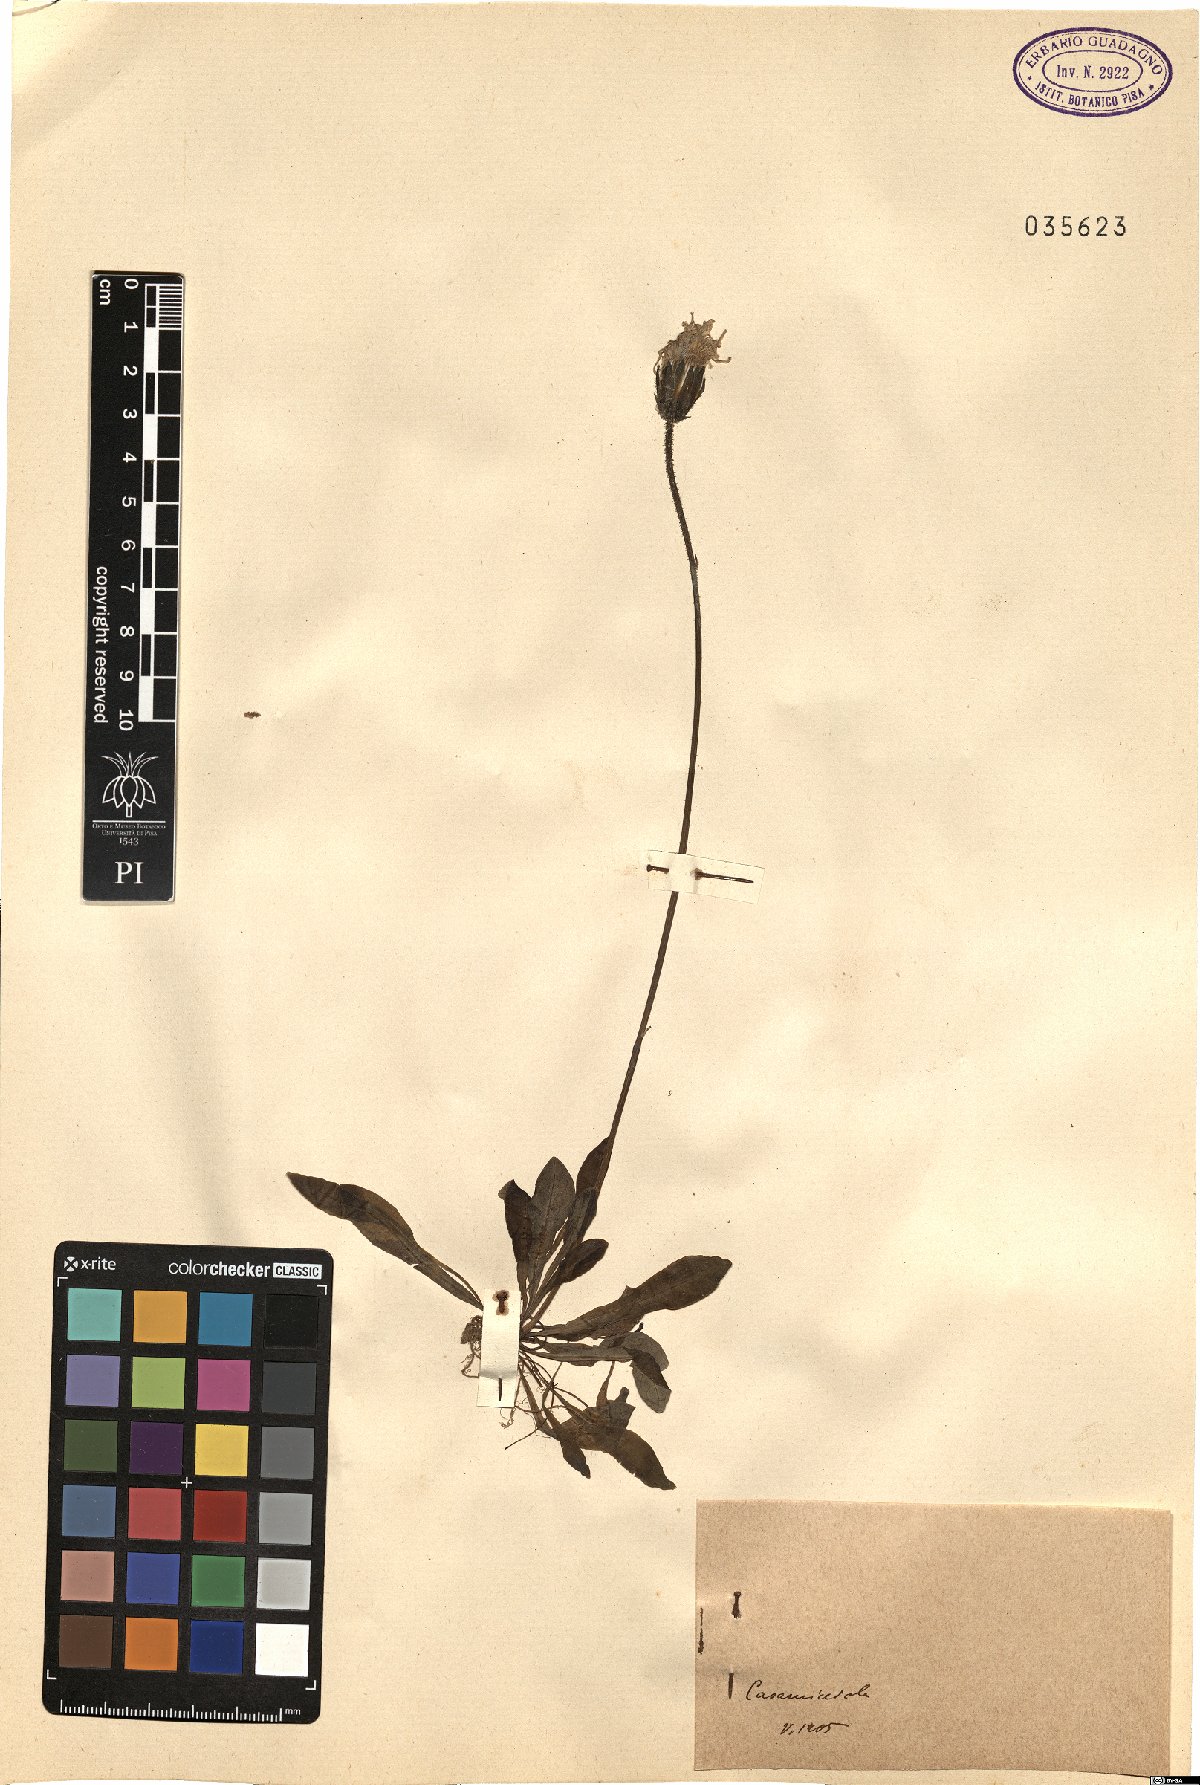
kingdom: Plantae
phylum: Tracheophyta
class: Magnoliopsida
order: Asterales
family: Asteraceae
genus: Crepis
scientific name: Crepis
